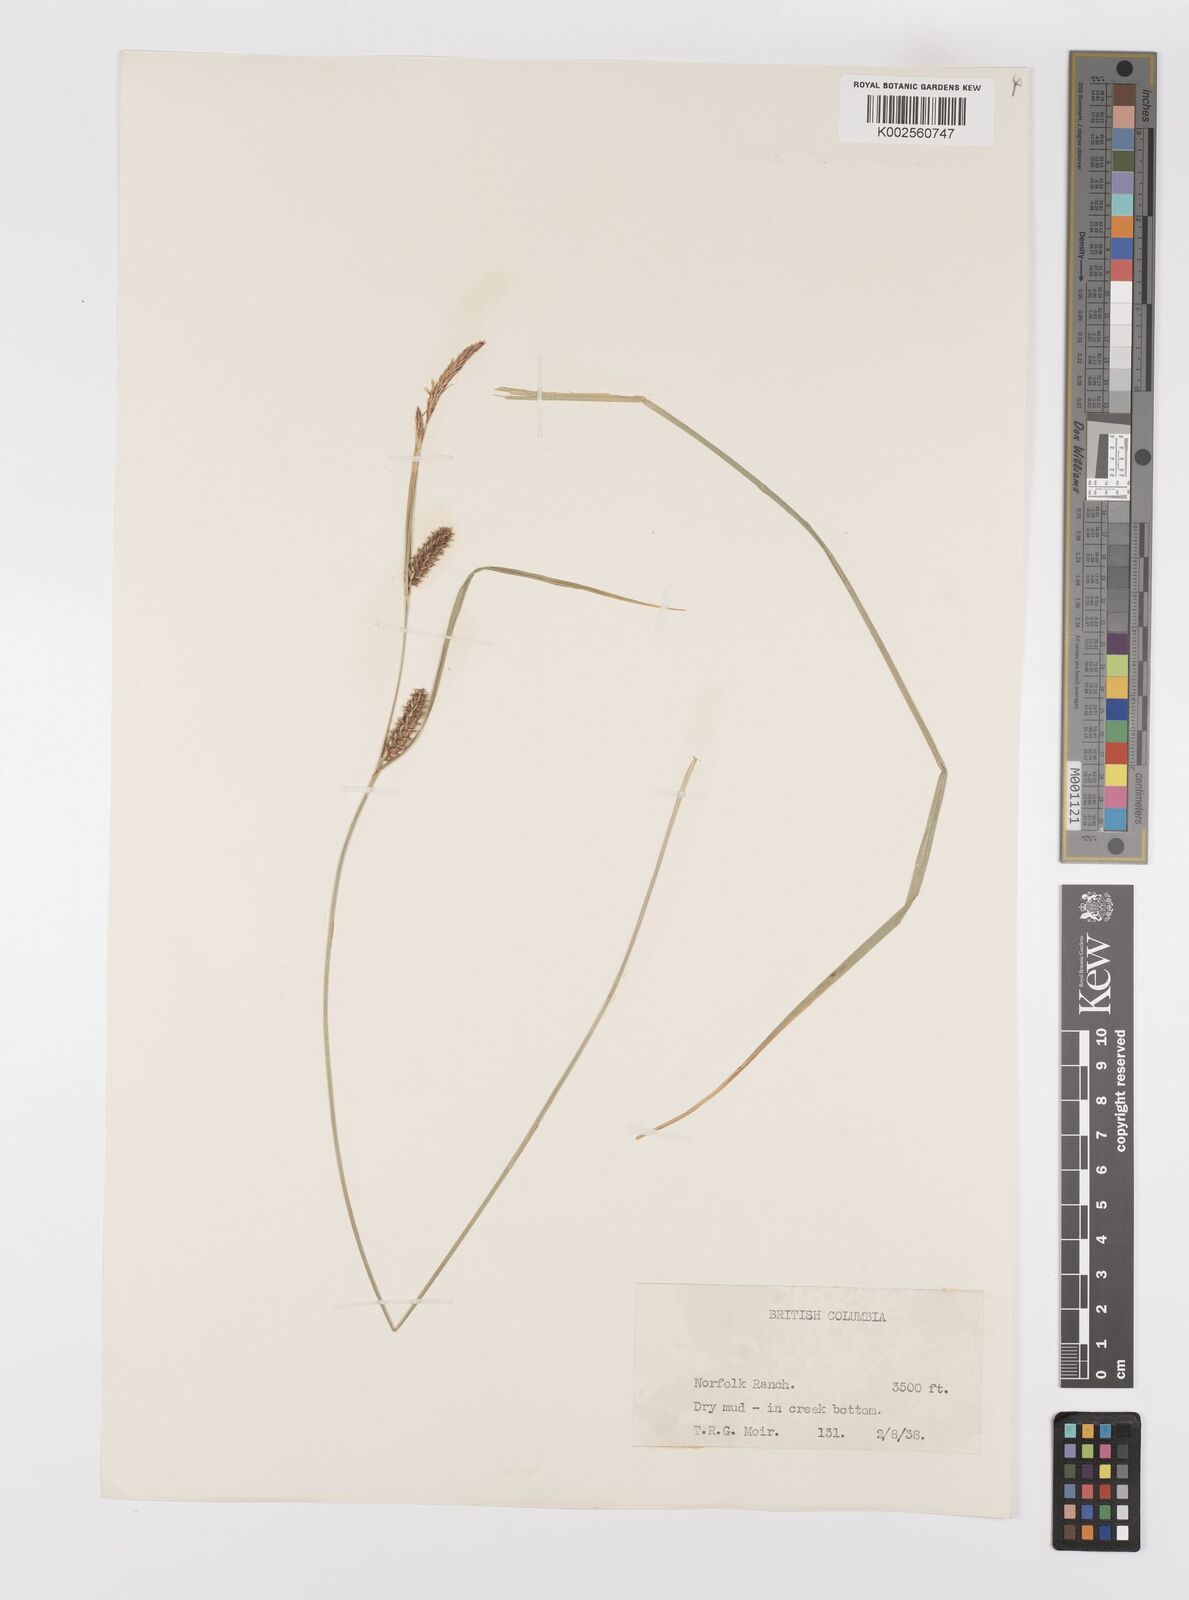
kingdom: Plantae
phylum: Tracheophyta
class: Liliopsida
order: Poales
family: Cyperaceae
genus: Carex
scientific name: Carex lasiocarpa
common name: Slender sedge
